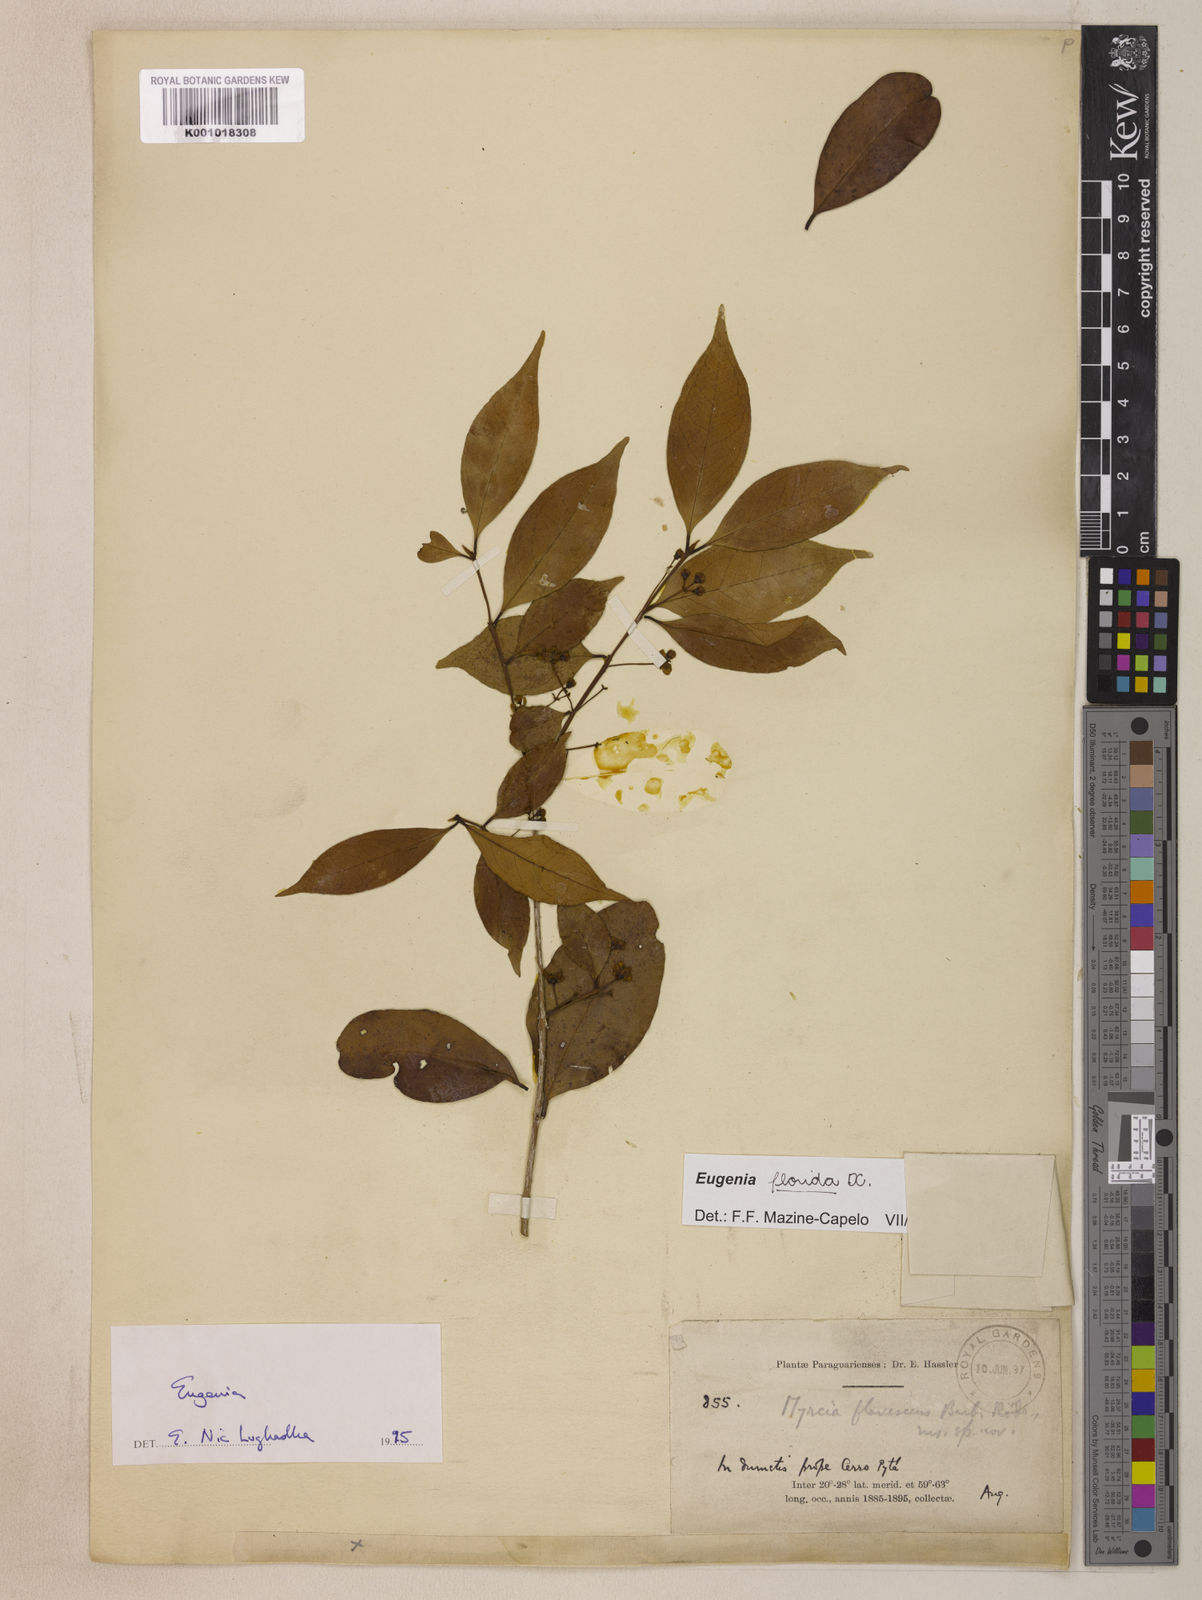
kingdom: Plantae
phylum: Tracheophyta
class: Magnoliopsida
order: Myrtales
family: Myrtaceae
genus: Eugenia
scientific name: Eugenia florida
